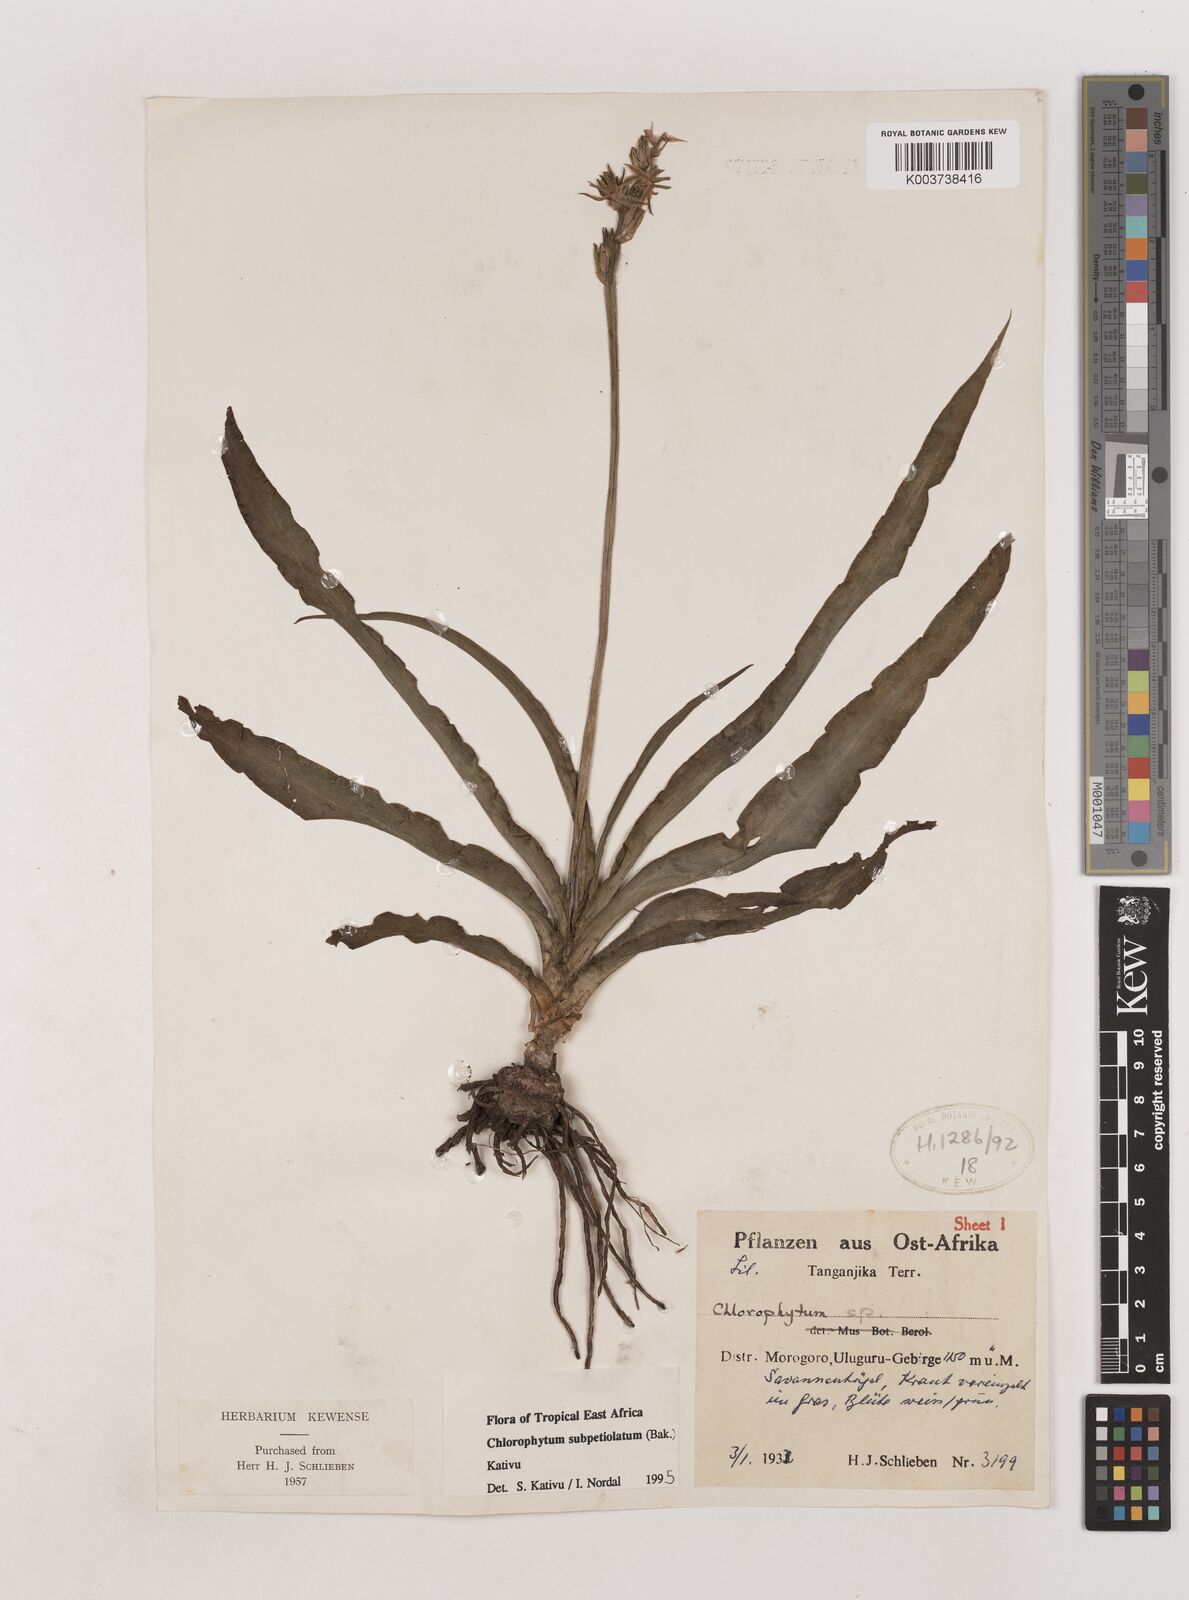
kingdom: Plantae
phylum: Tracheophyta
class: Liliopsida
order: Asparagales
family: Asparagaceae
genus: Chlorophytum
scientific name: Chlorophytum subpetiolatum
